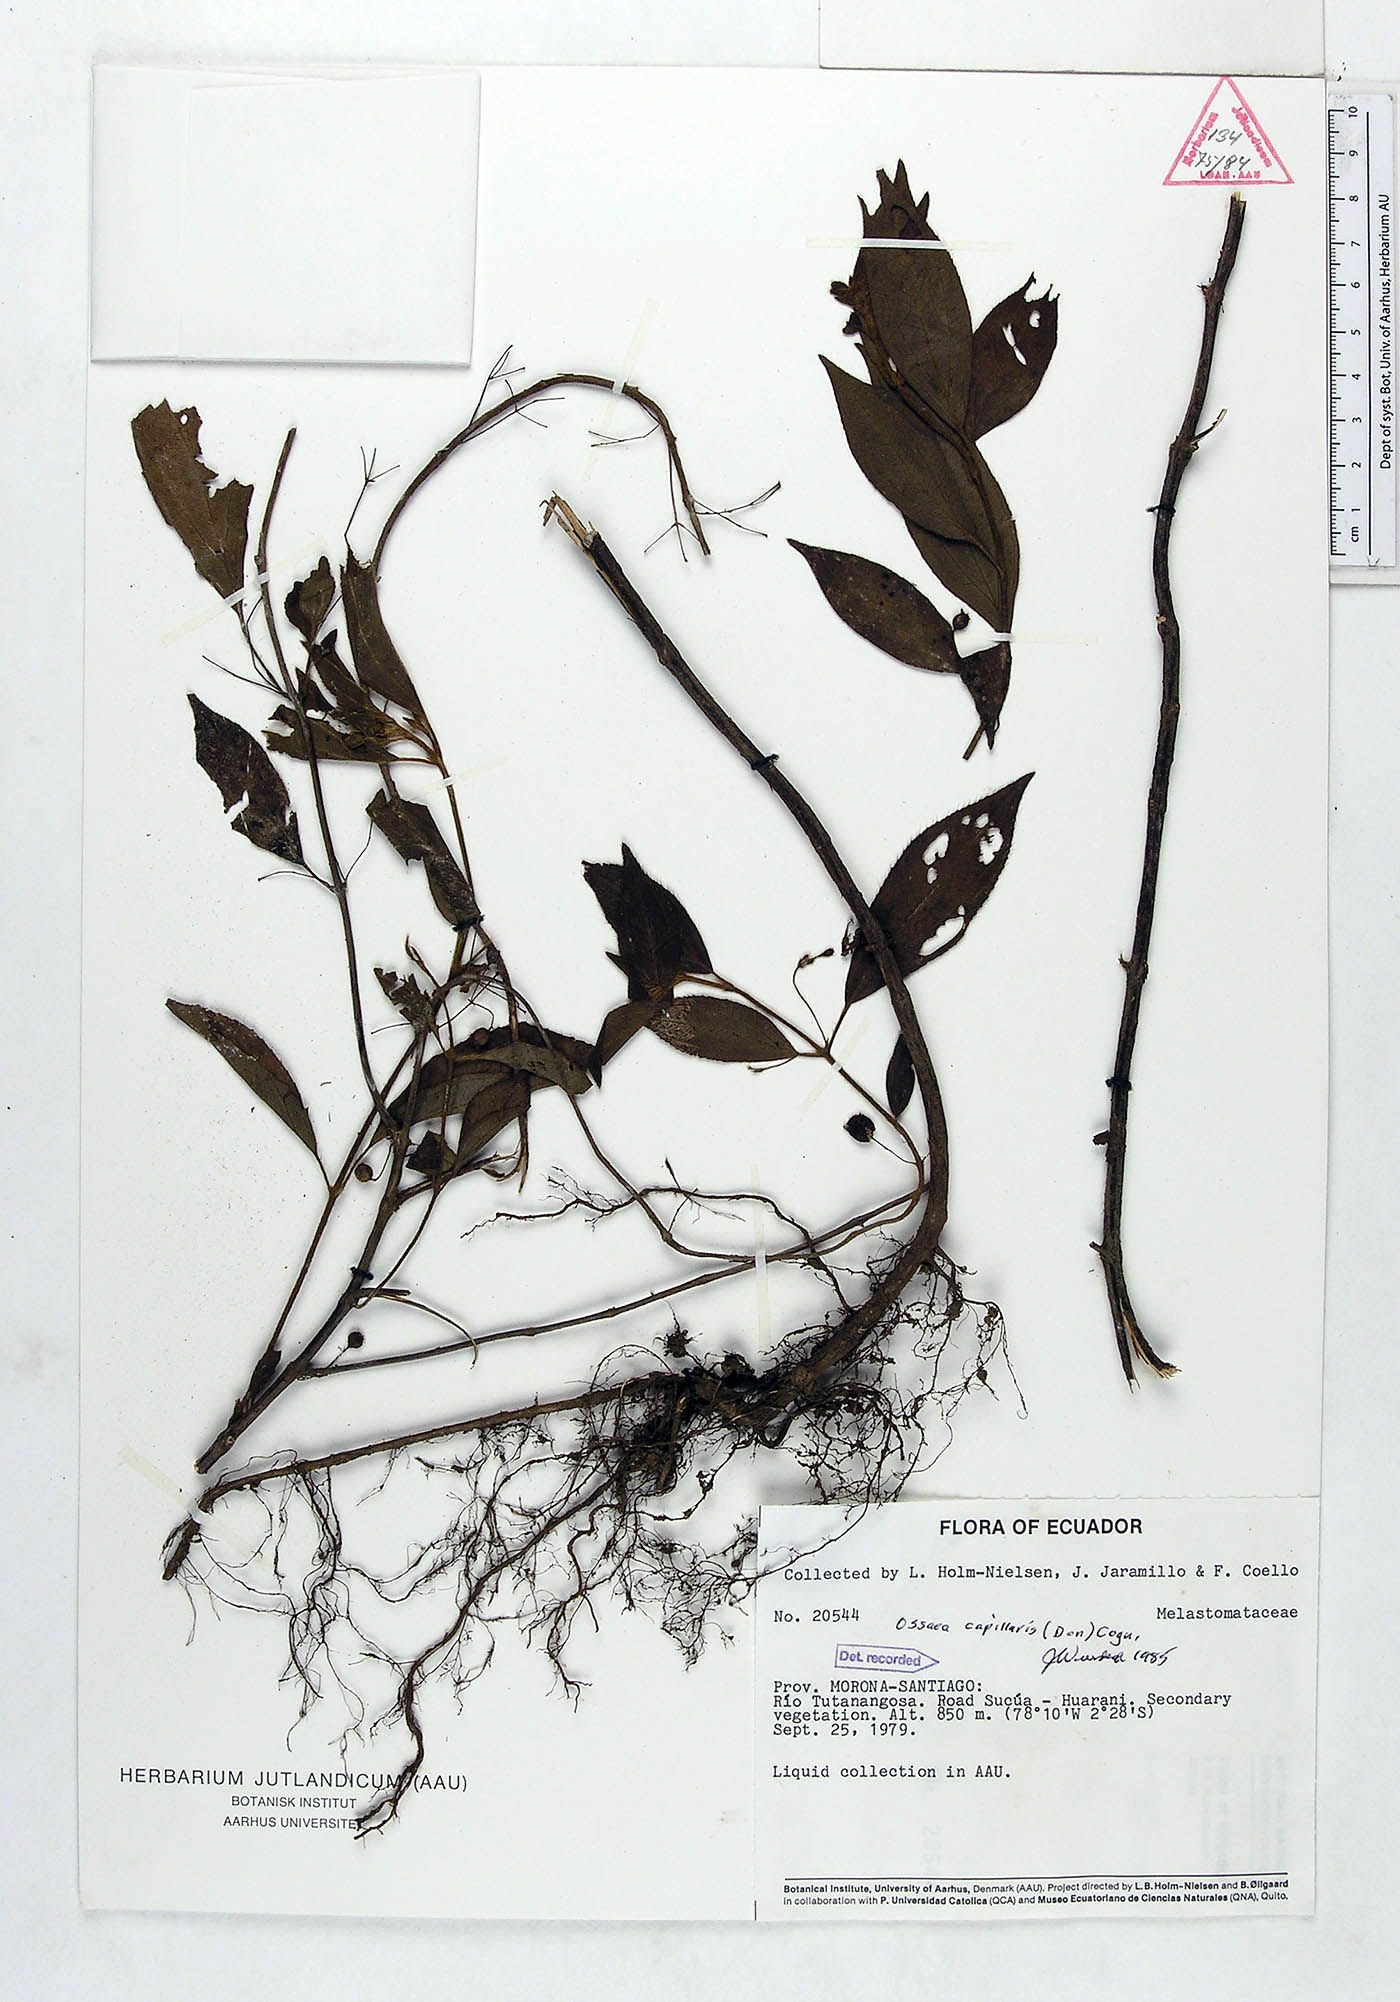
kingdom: Plantae
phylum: Tracheophyta
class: Magnoliopsida
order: Myrtales
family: Melastomataceae
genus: Miconia
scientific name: Miconia leptopus
